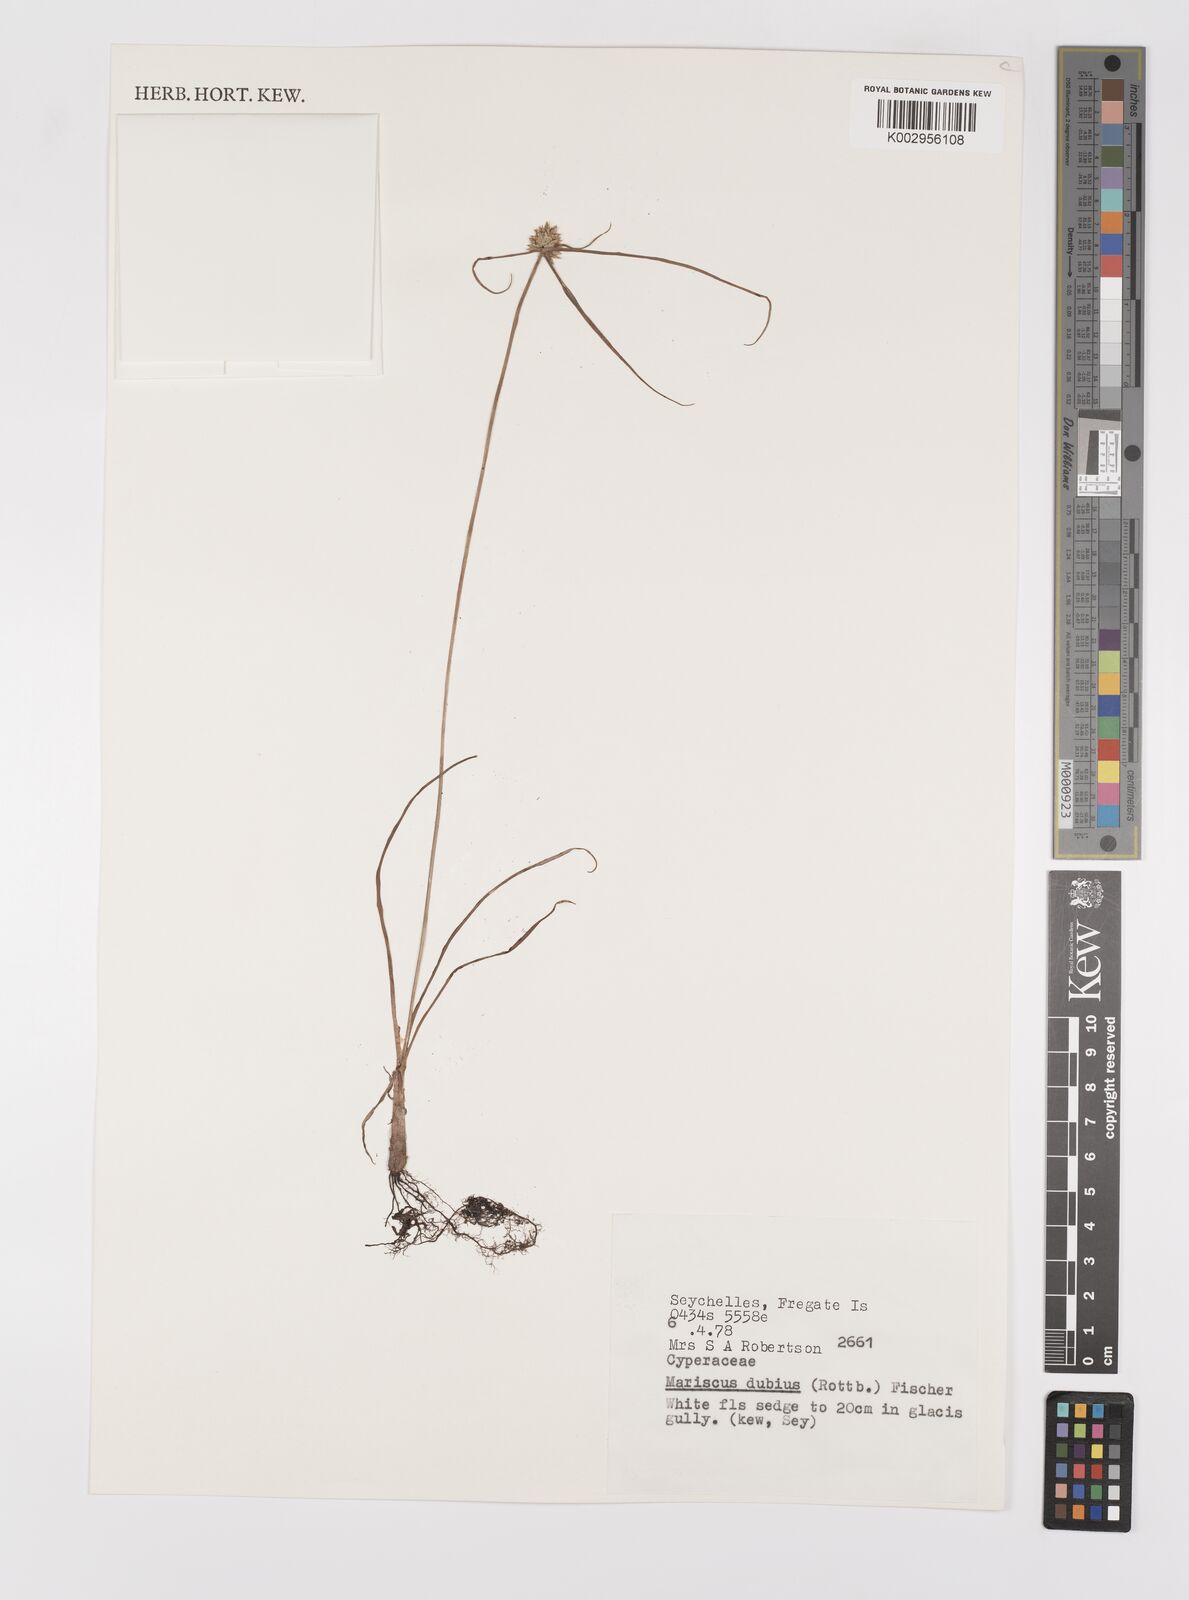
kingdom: Plantae
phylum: Tracheophyta
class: Liliopsida
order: Poales
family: Cyperaceae
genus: Cyperus
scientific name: Cyperus dubius
